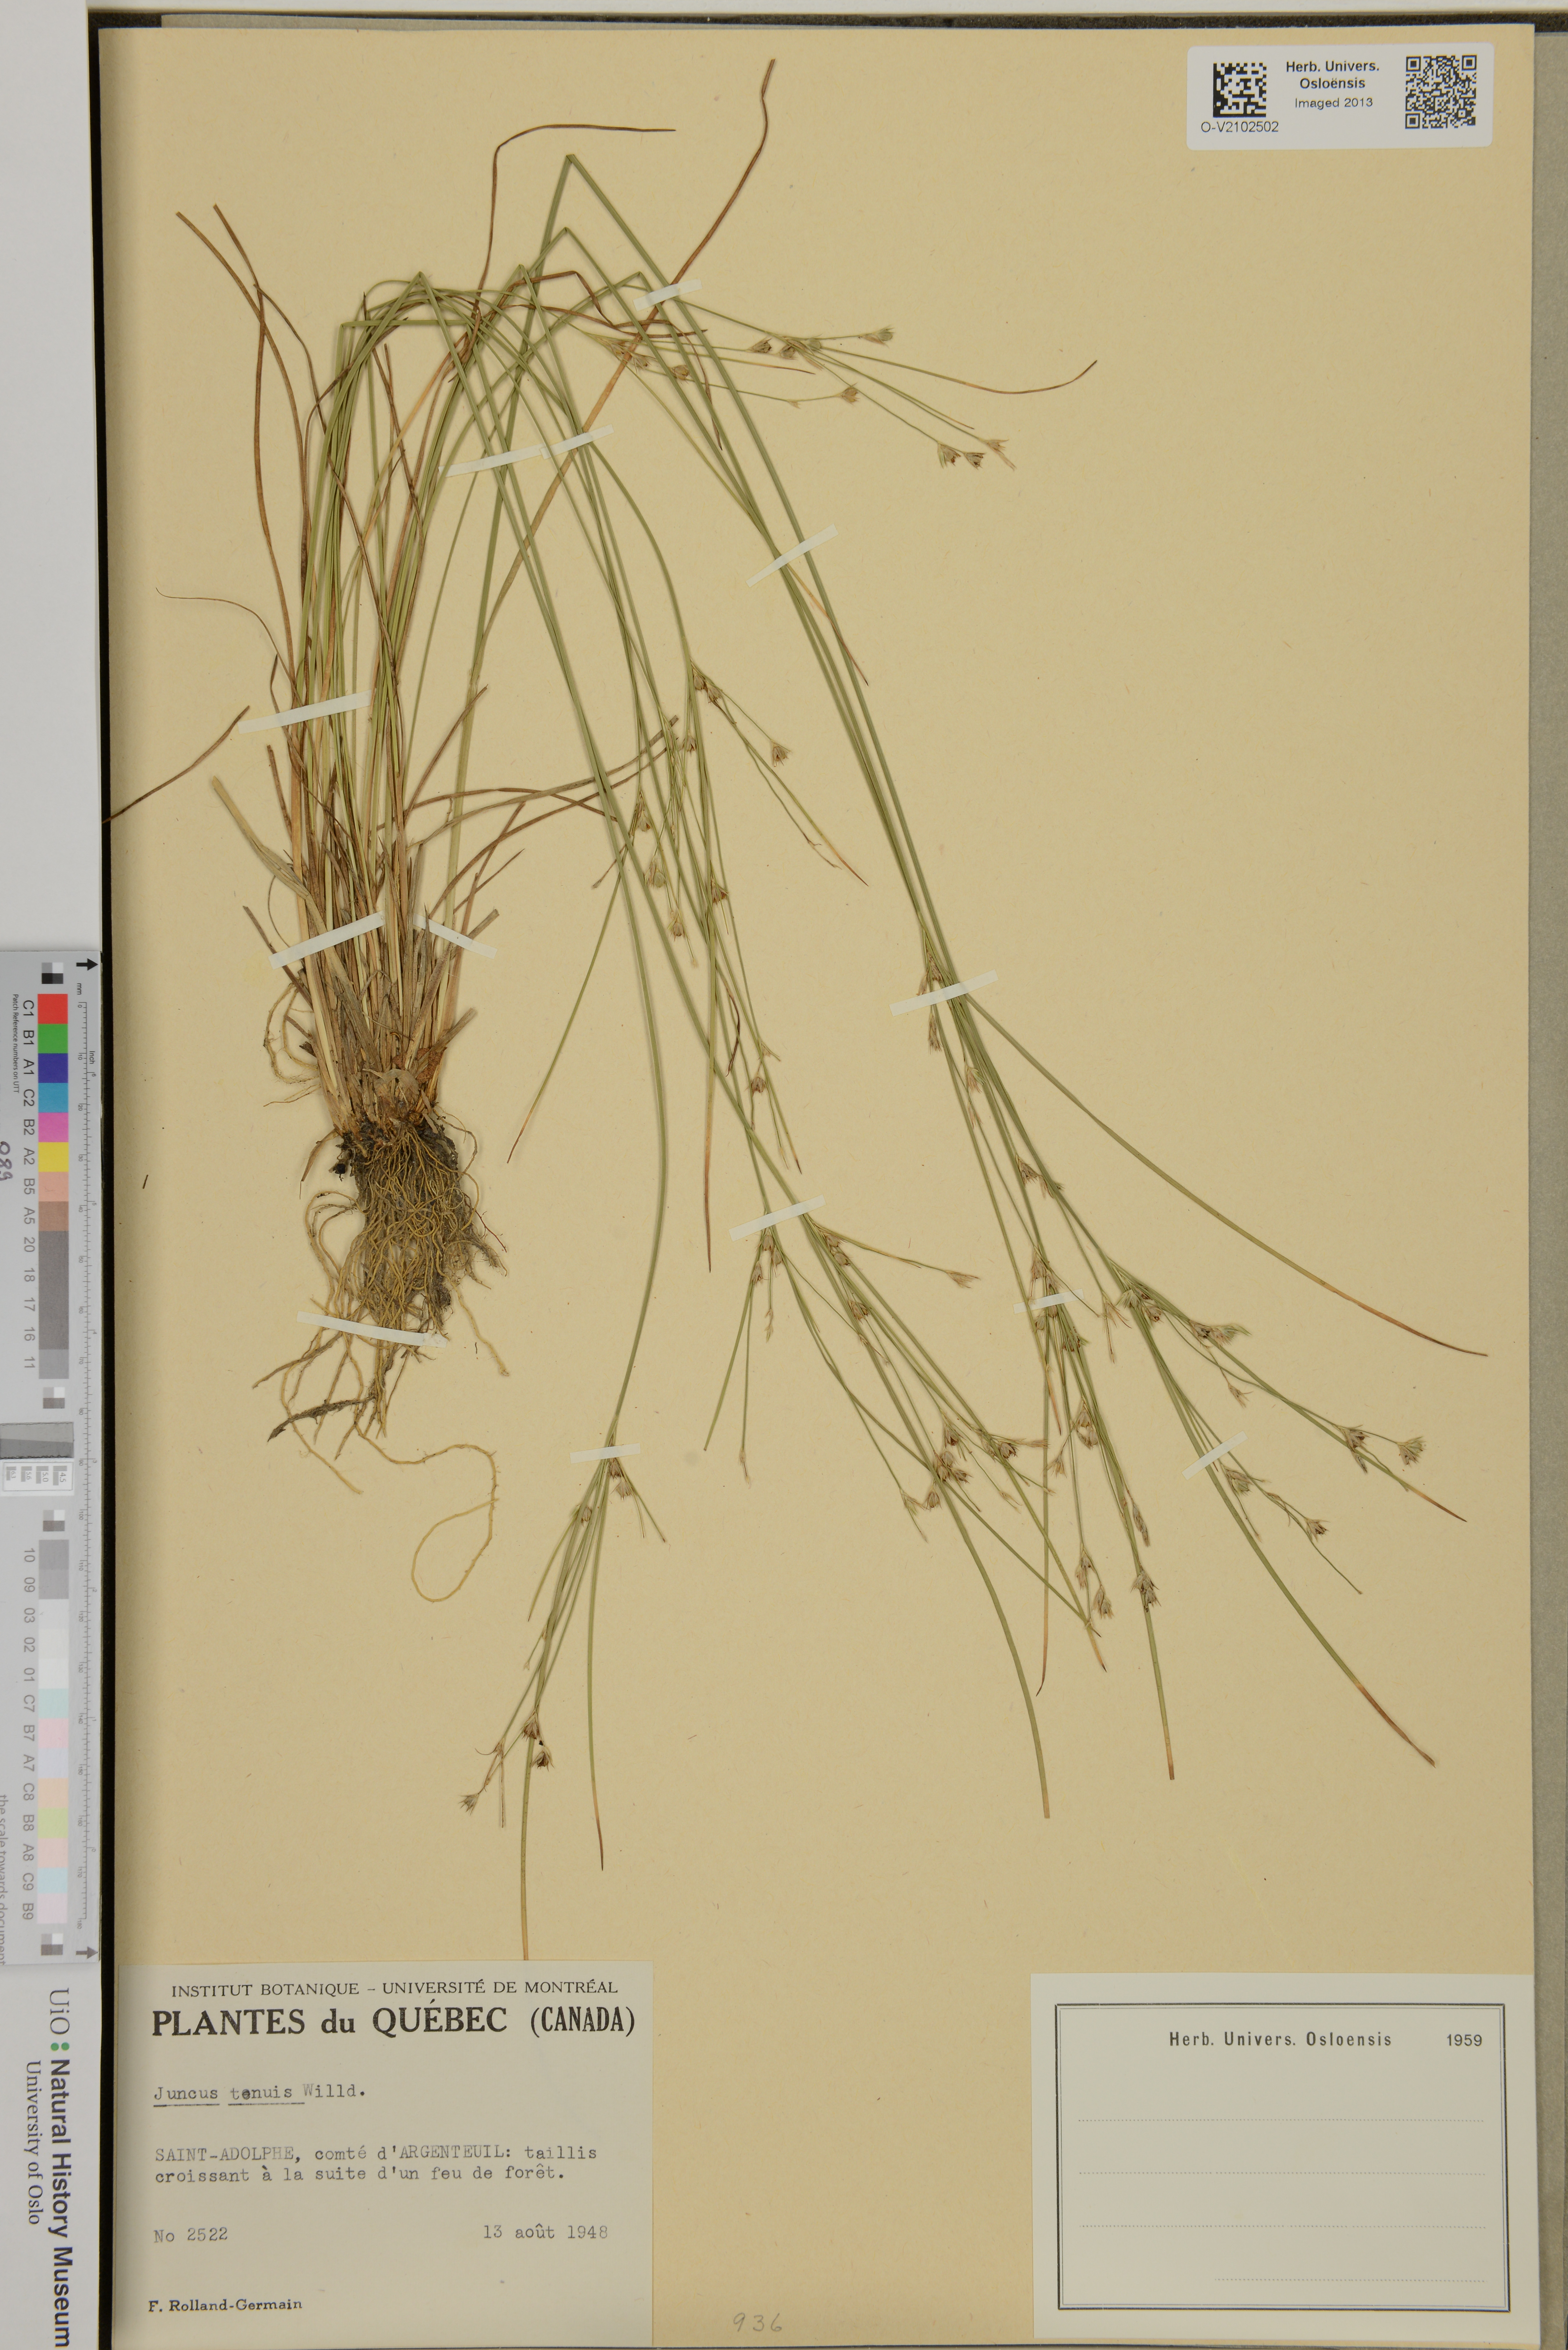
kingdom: Plantae
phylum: Tracheophyta
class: Liliopsida
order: Poales
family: Juncaceae
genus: Juncus
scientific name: Juncus tenuis
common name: Slender rush
